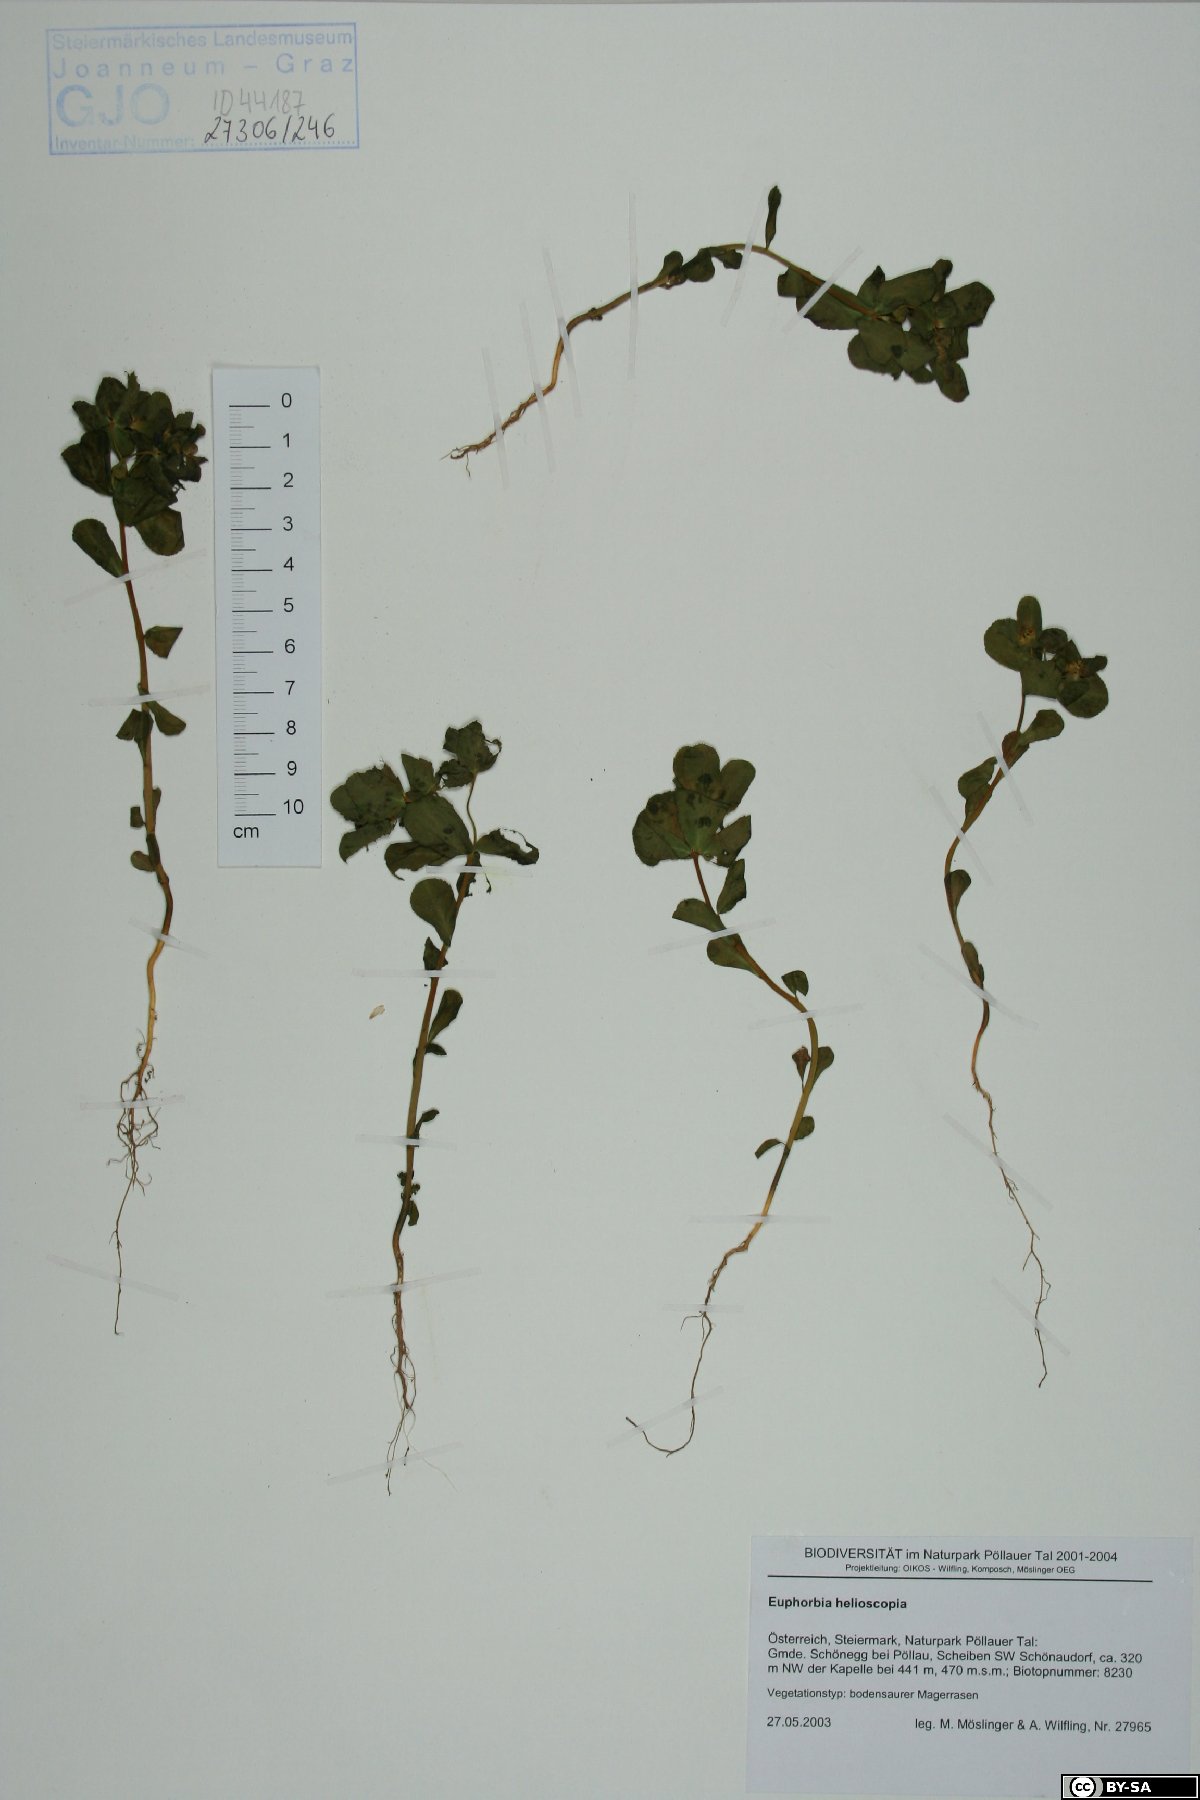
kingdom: Plantae
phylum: Tracheophyta
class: Magnoliopsida
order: Malpighiales
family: Euphorbiaceae
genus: Euphorbia
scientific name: Euphorbia helioscopia
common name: Sun spurge
